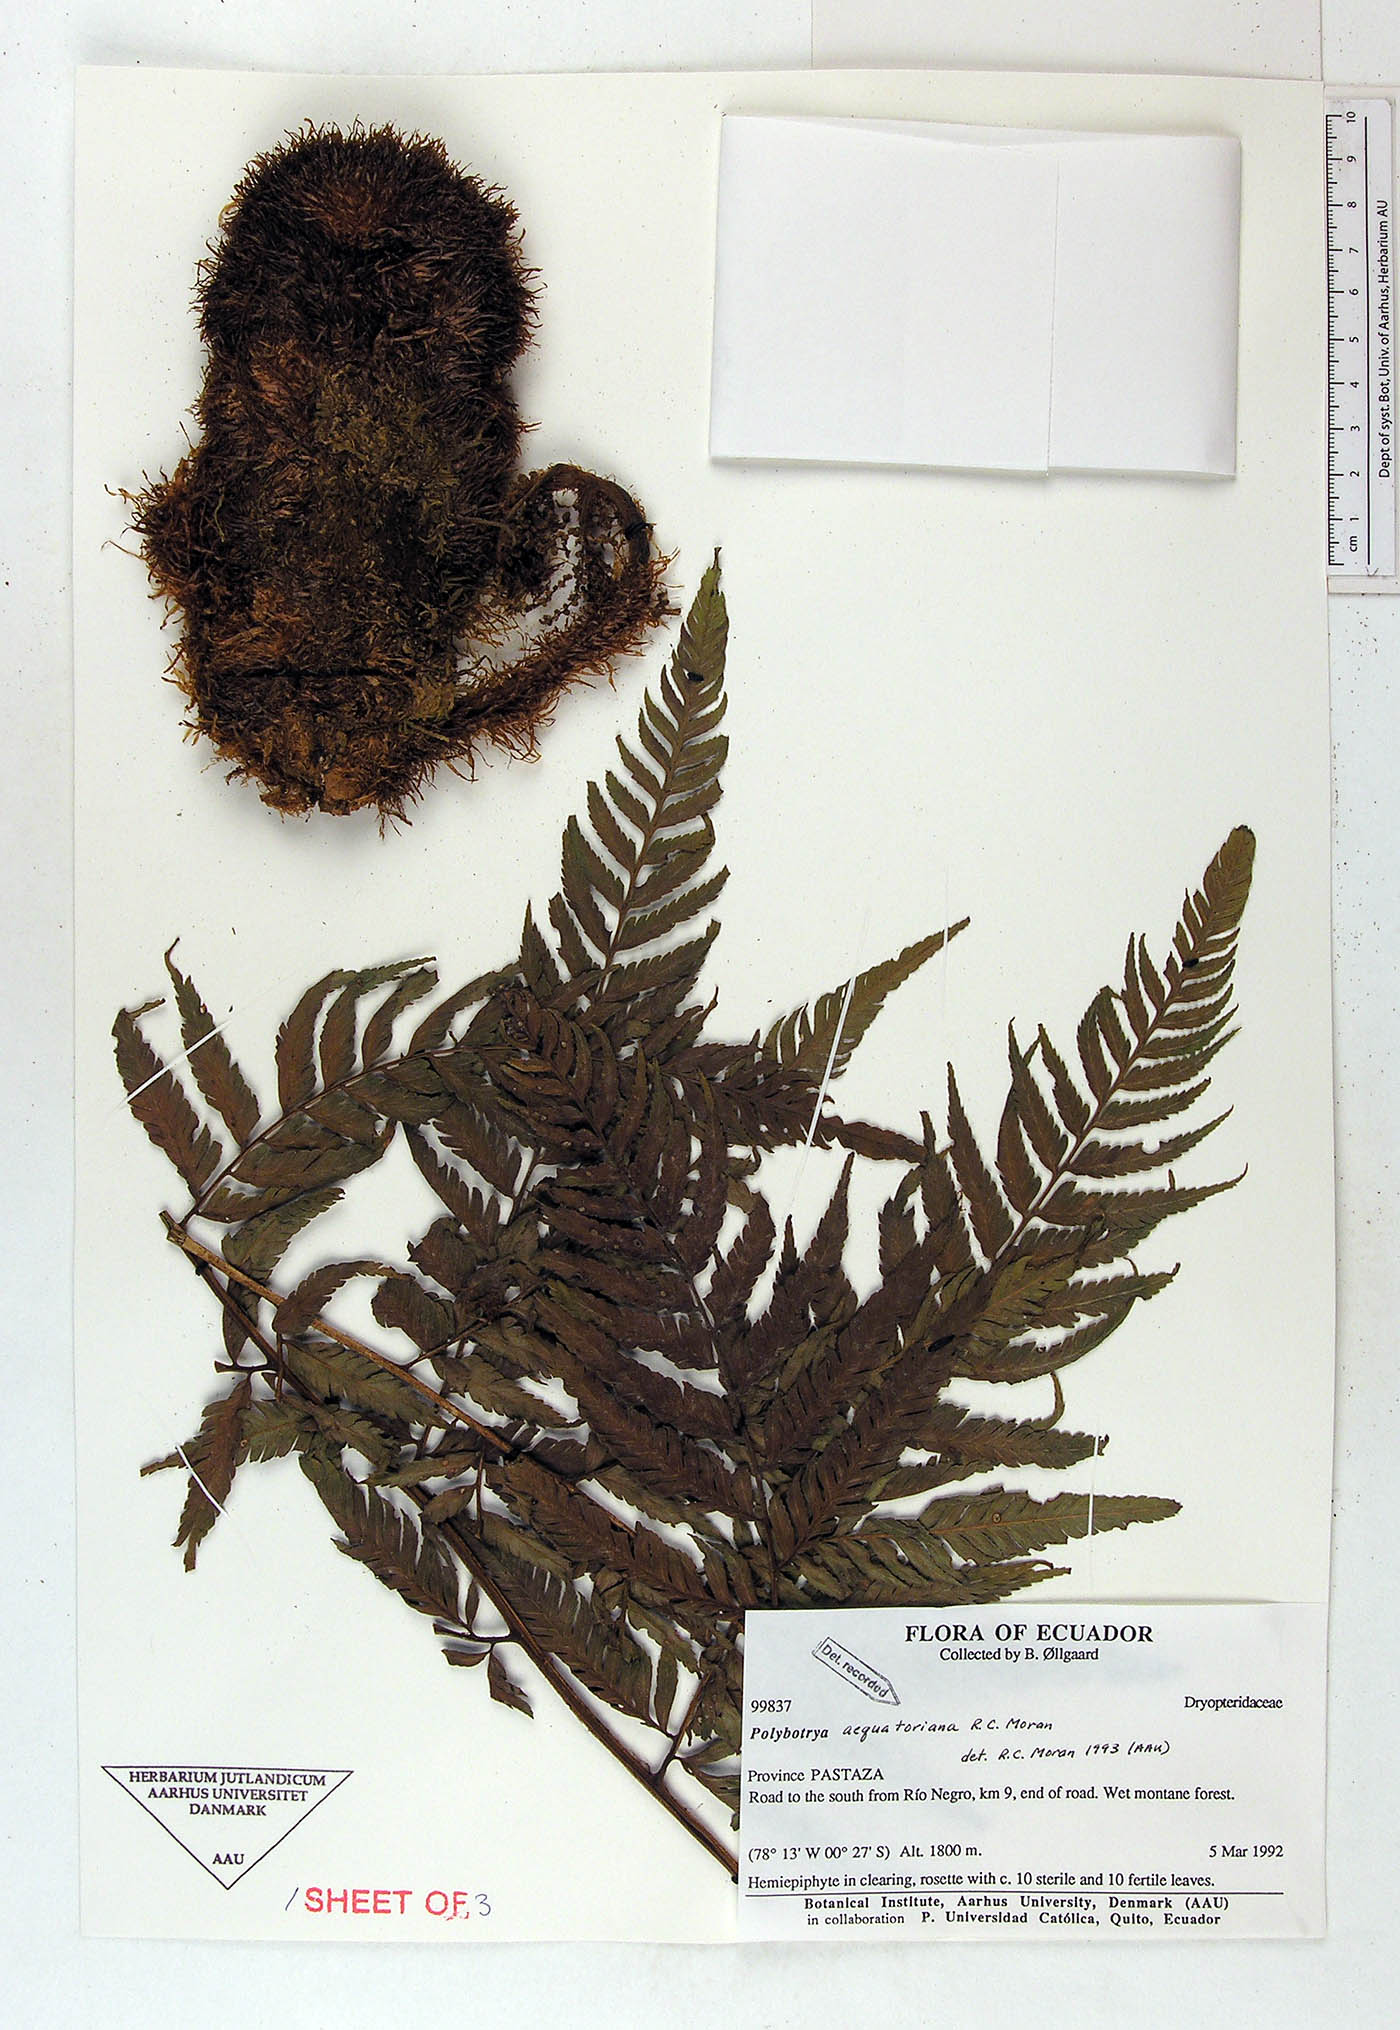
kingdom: Plantae
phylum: Tracheophyta
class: Polypodiopsida
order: Polypodiales
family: Dryopteridaceae
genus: Polybotrya
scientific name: Polybotrya aequatoriana
